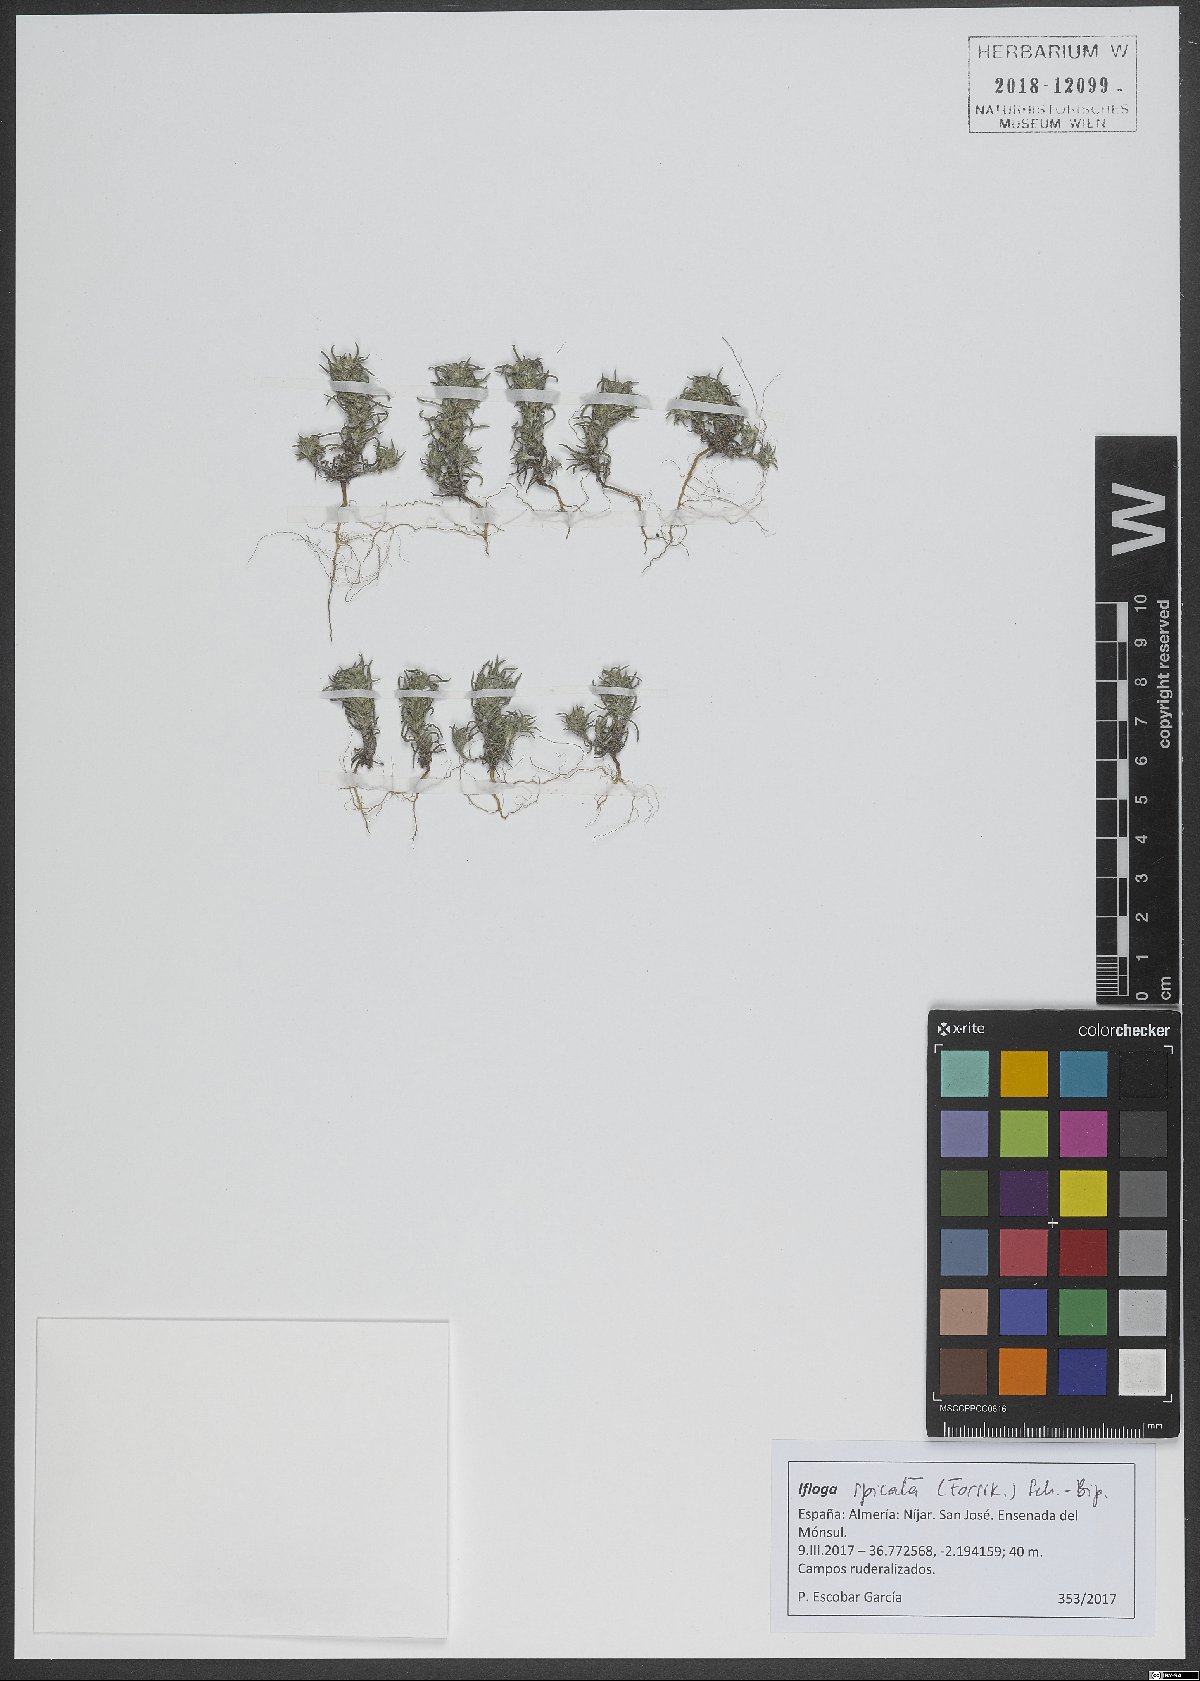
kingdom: Plantae
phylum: Tracheophyta
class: Magnoliopsida
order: Asterales
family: Asteraceae
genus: Ifloga
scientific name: Ifloga spicata
